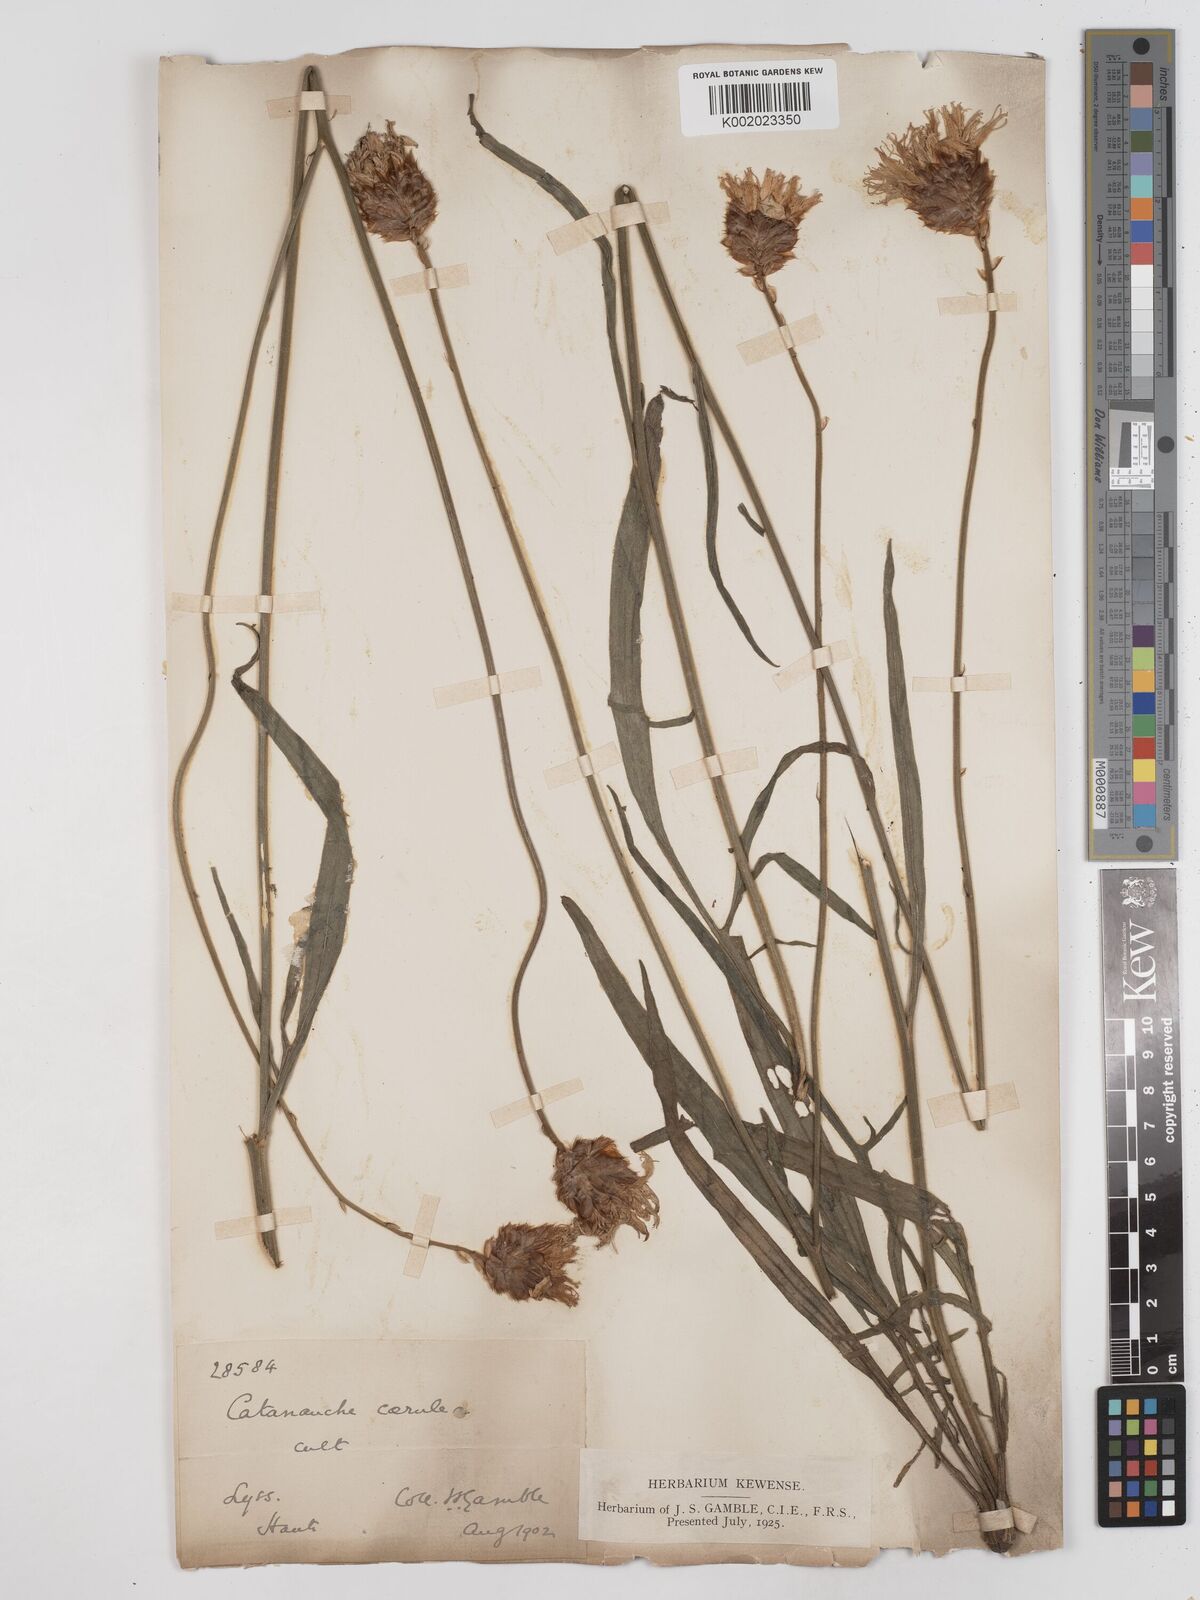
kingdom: Plantae
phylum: Tracheophyta
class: Magnoliopsida
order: Asterales
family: Asteraceae
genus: Catananche
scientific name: Catananche caerulea
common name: Blue cupidone
